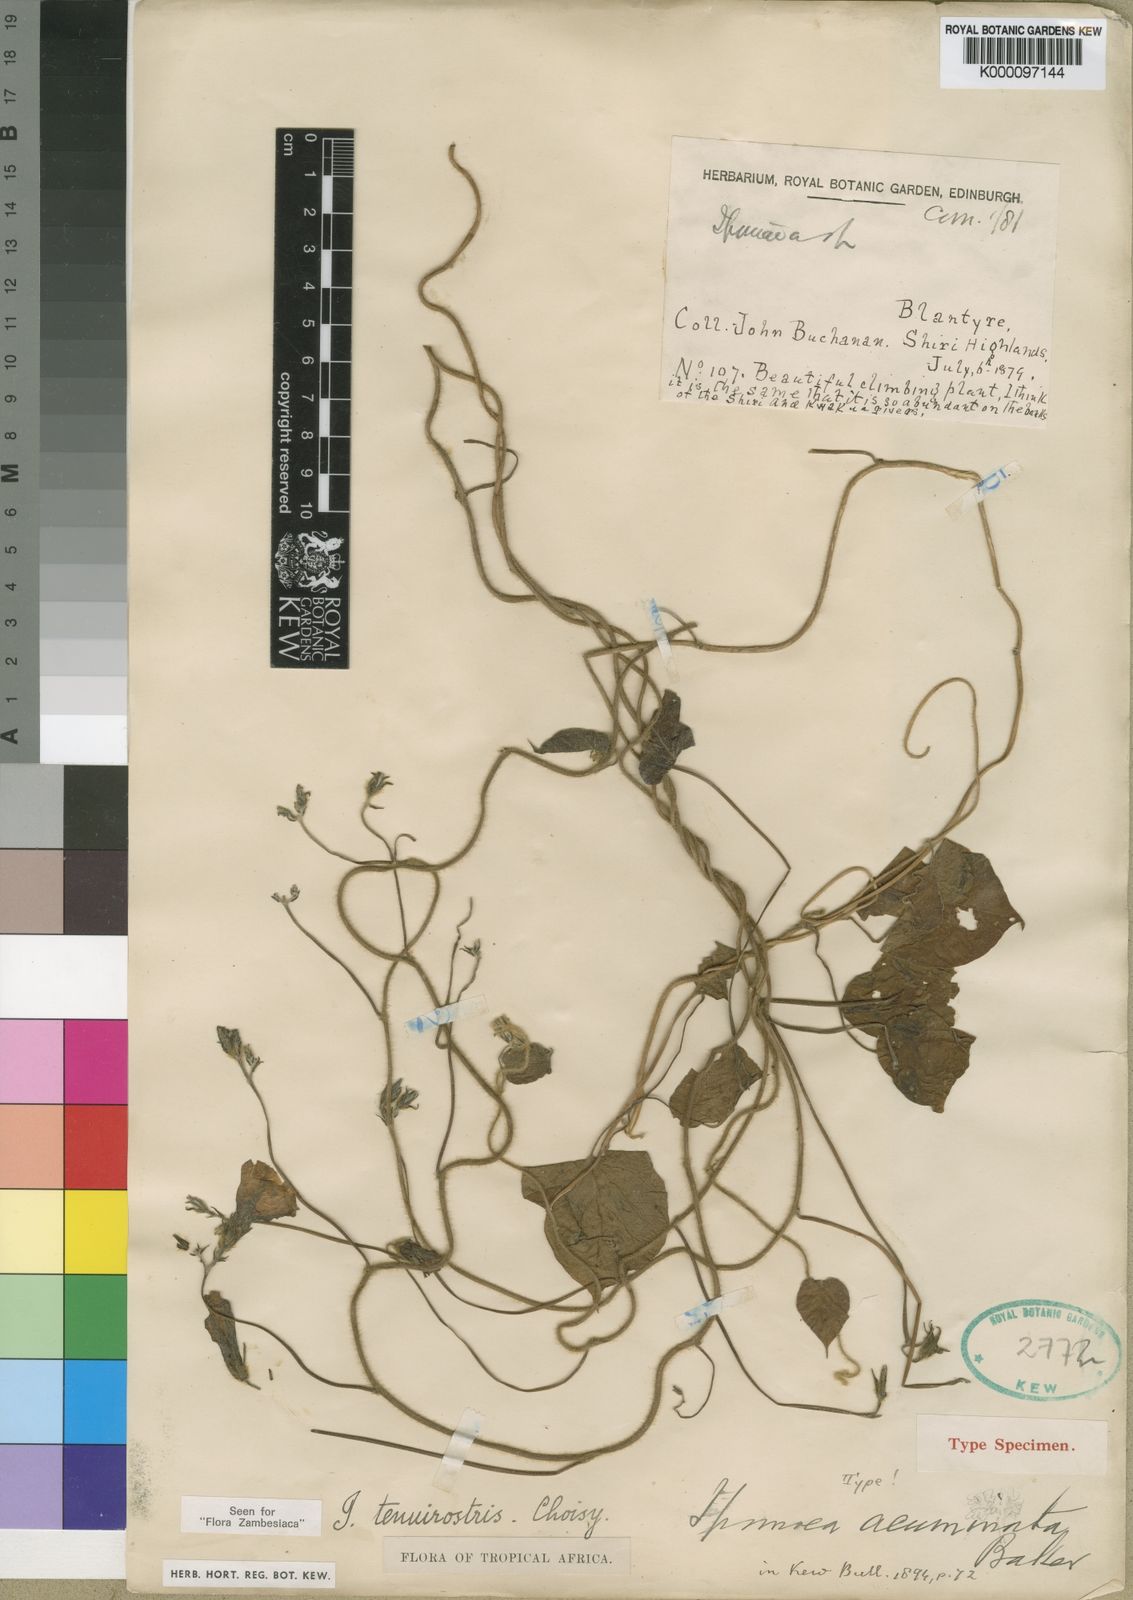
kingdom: Plantae
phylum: Tracheophyta
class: Magnoliopsida
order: Solanales
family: Convolvulaceae
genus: Ipomoea
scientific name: Ipomoea tenuirostris
